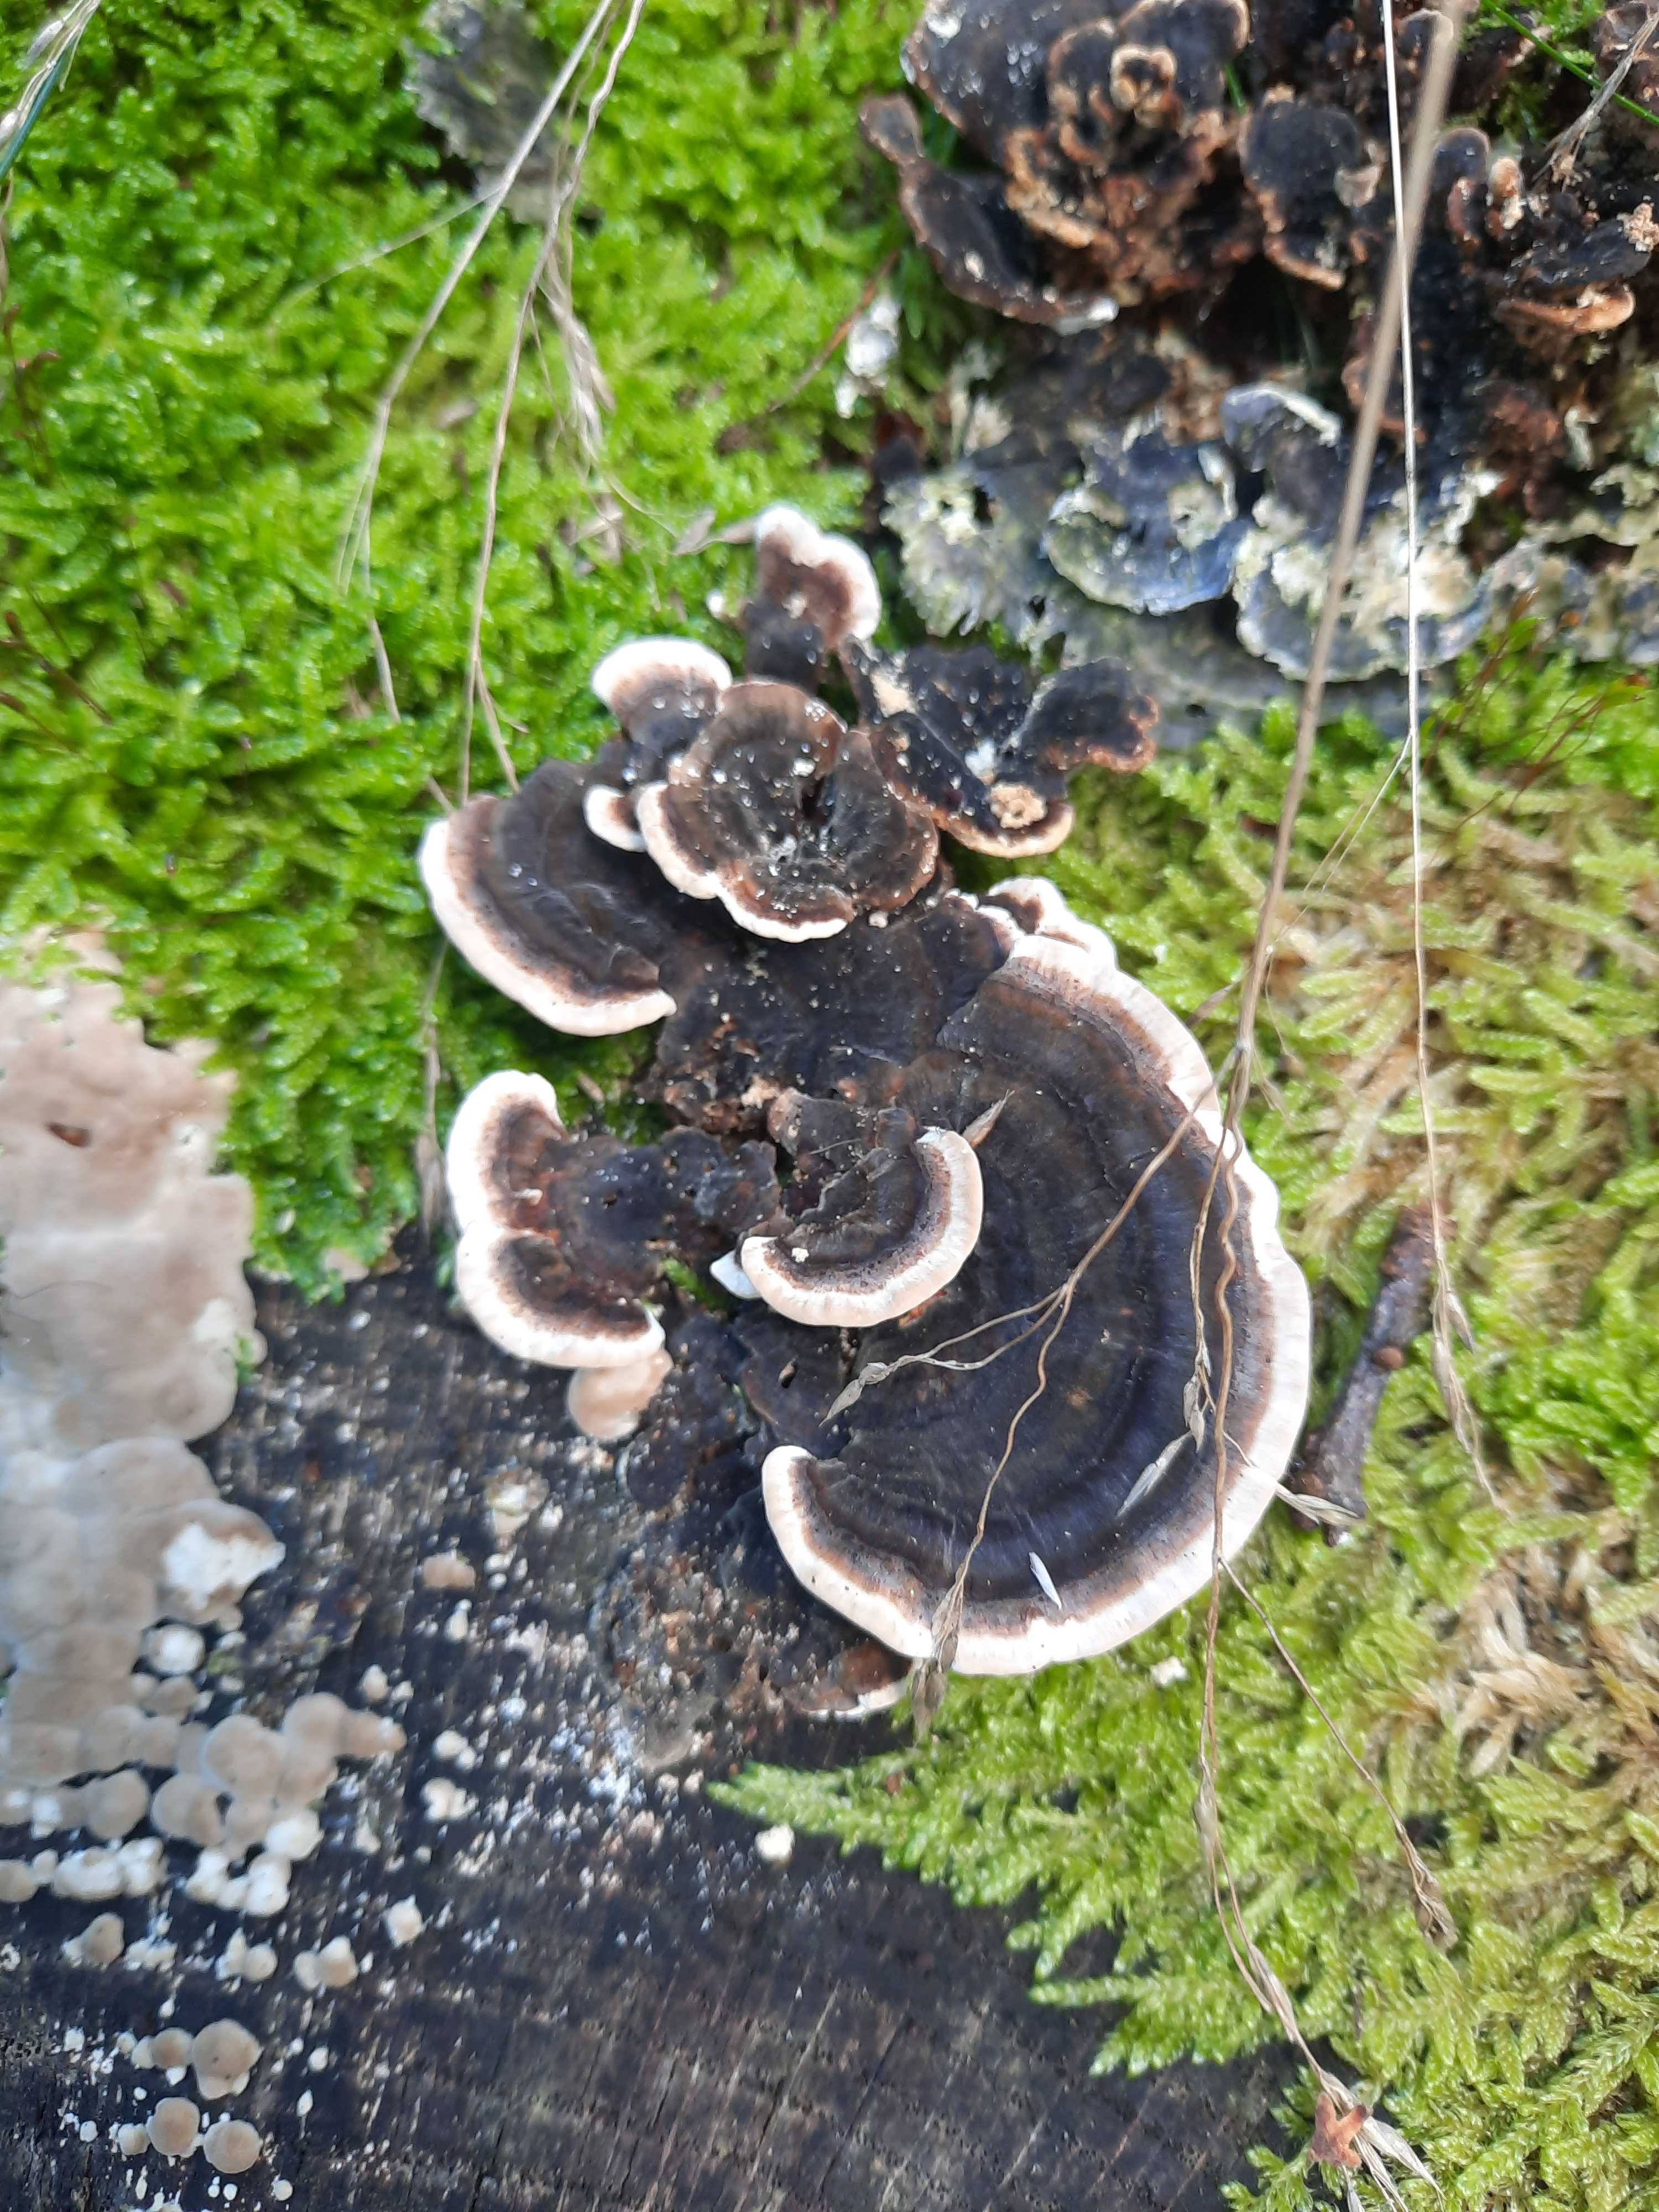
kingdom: Fungi
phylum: Basidiomycota
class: Agaricomycetes
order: Polyporales
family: Polyporaceae
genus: Trametes
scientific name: Trametes versicolor
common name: broget læderporesvamp
